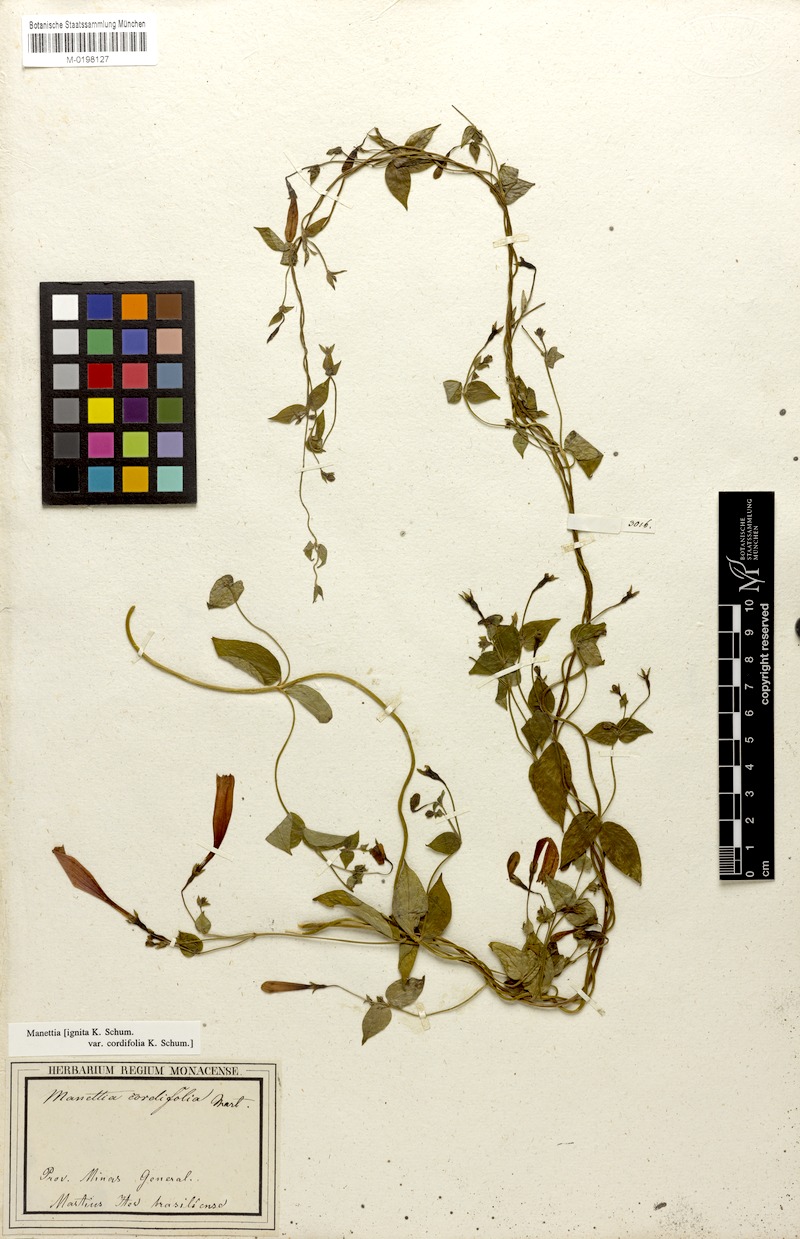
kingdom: Plantae
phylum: Tracheophyta
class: Magnoliopsida
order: Gentianales
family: Rubiaceae
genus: Manettia
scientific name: Manettia cordifolia
